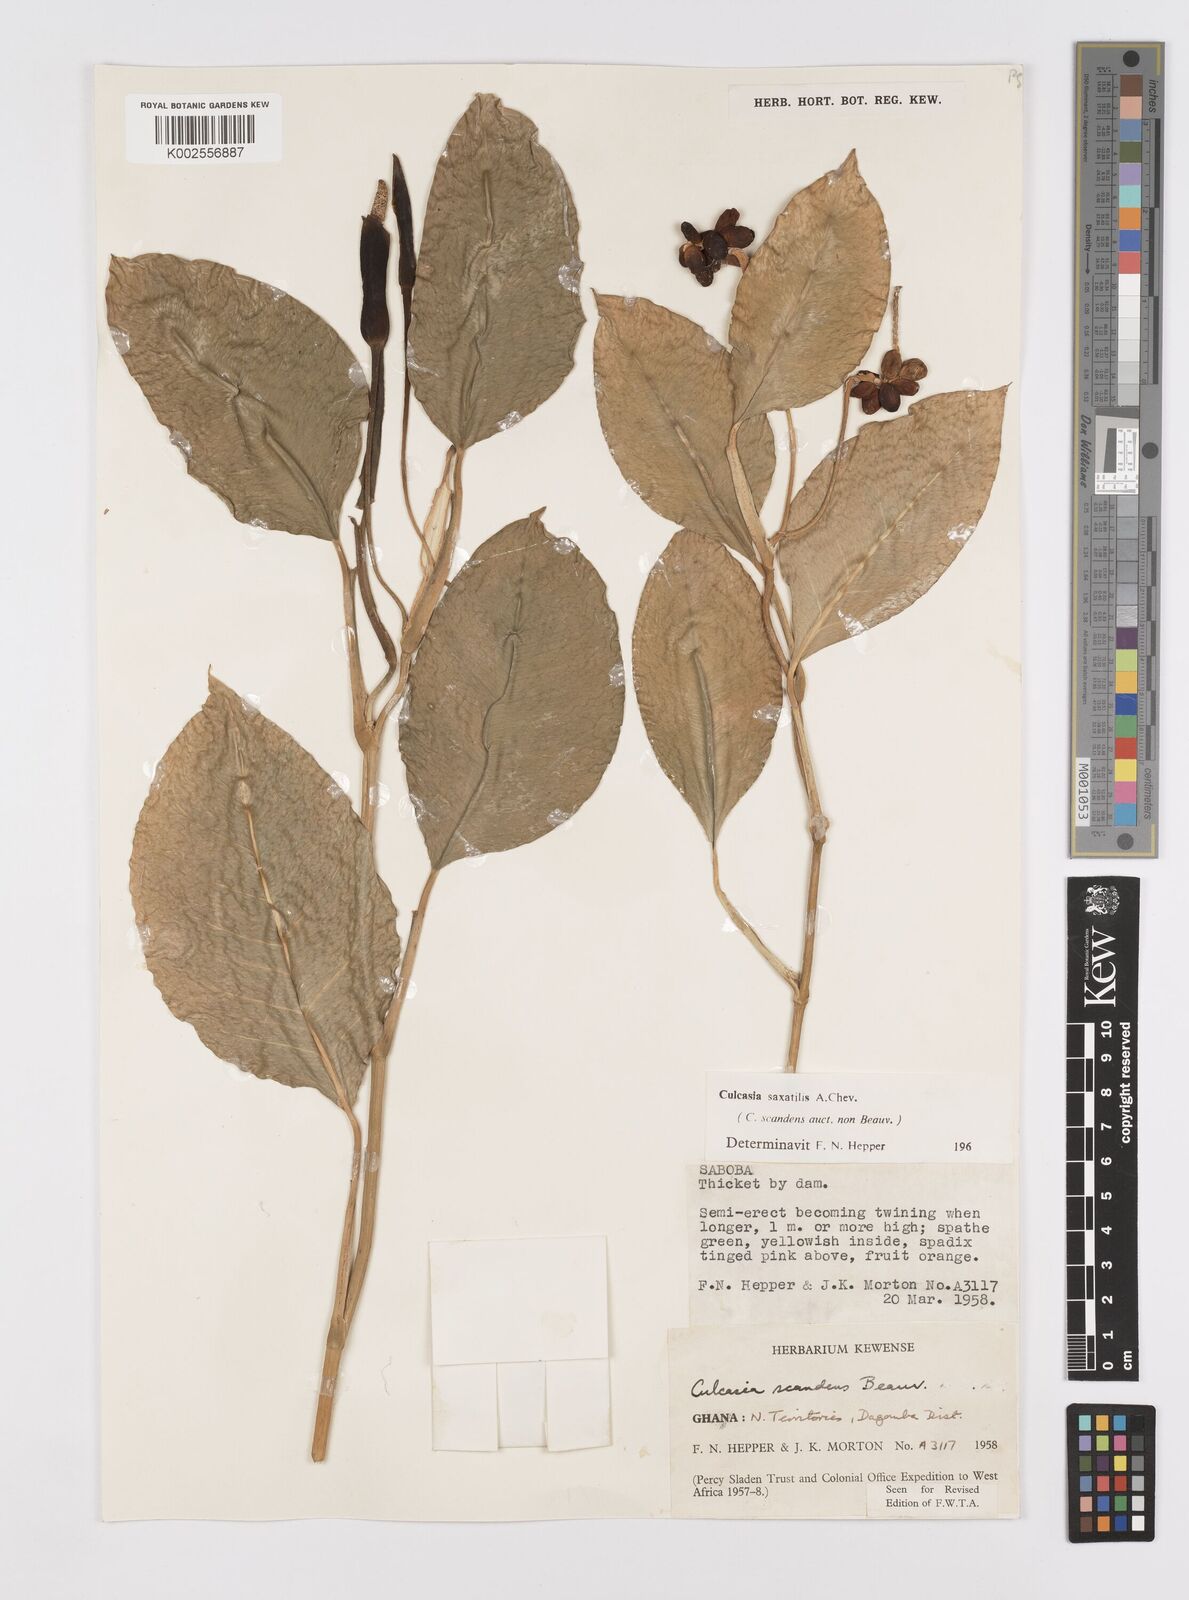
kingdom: Plantae
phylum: Tracheophyta
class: Liliopsida
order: Alismatales
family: Araceae
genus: Culcasia
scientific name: Culcasia scandens
